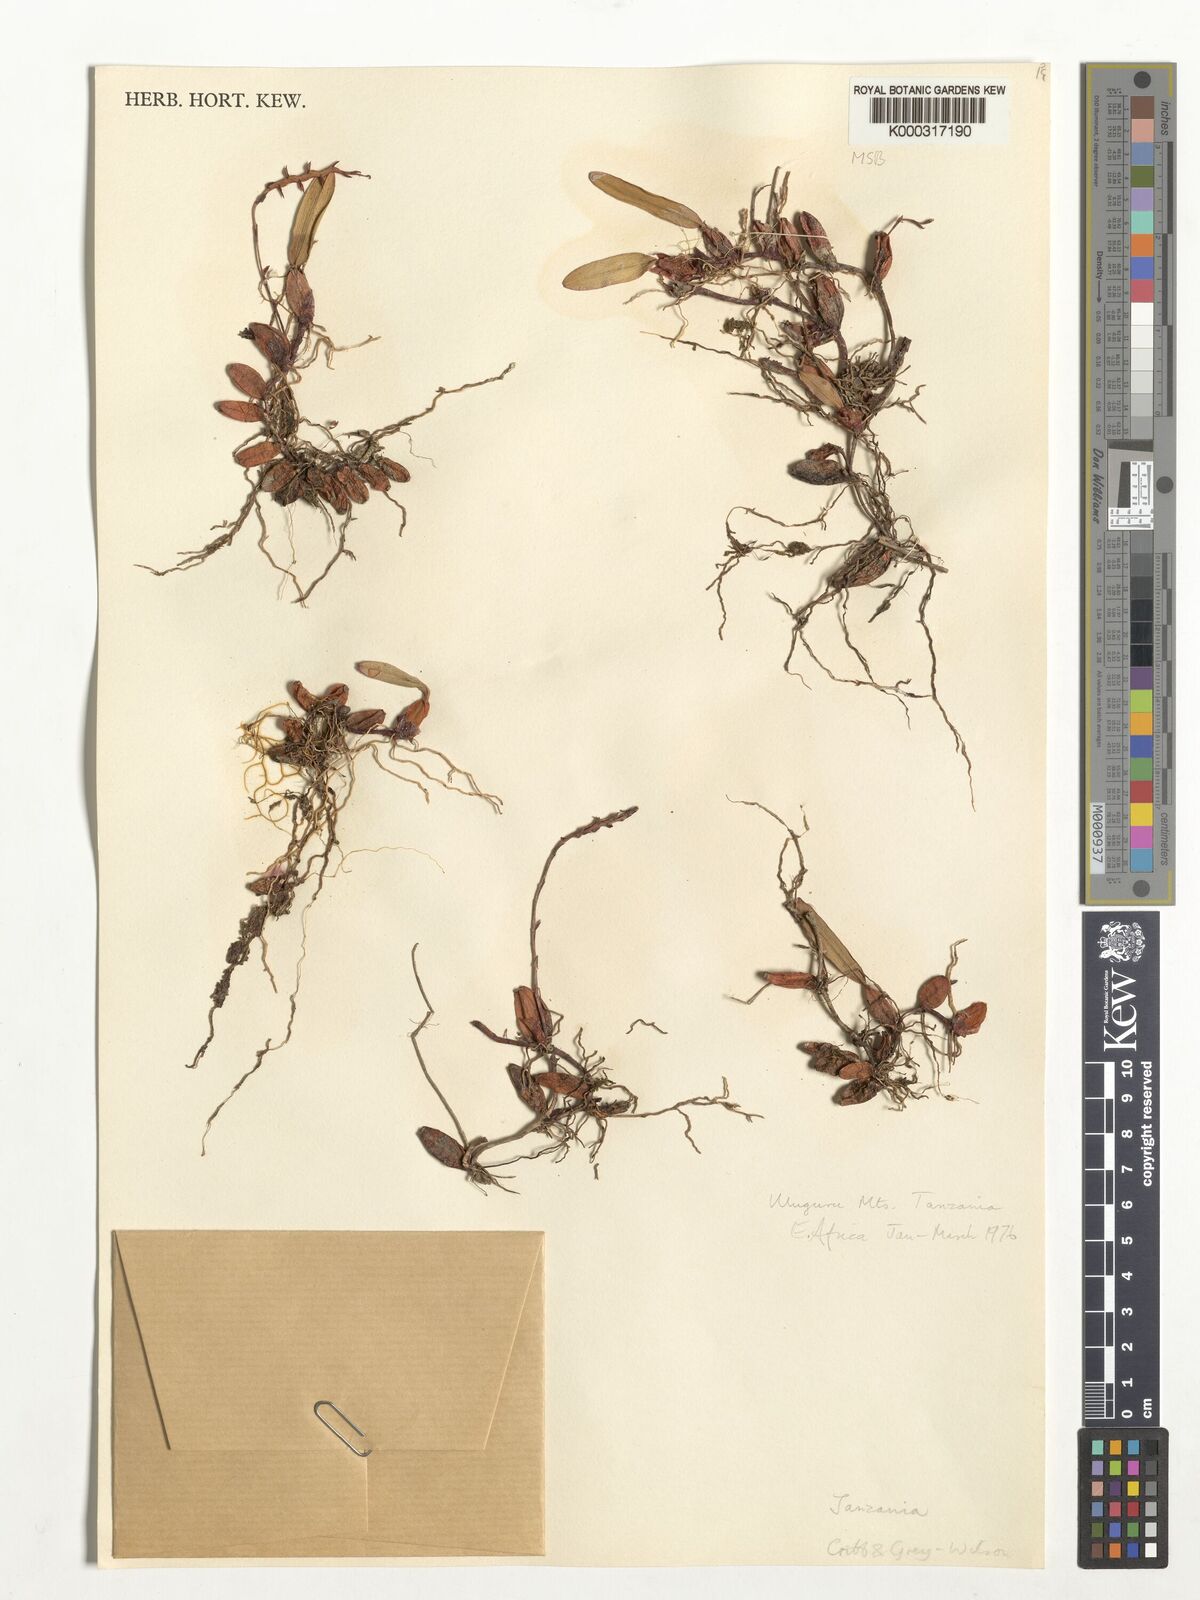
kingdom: Plantae
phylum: Tracheophyta
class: Liliopsida
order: Asparagales
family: Orchidaceae
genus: Bulbophyllum
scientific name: Bulbophyllum concatenatum
